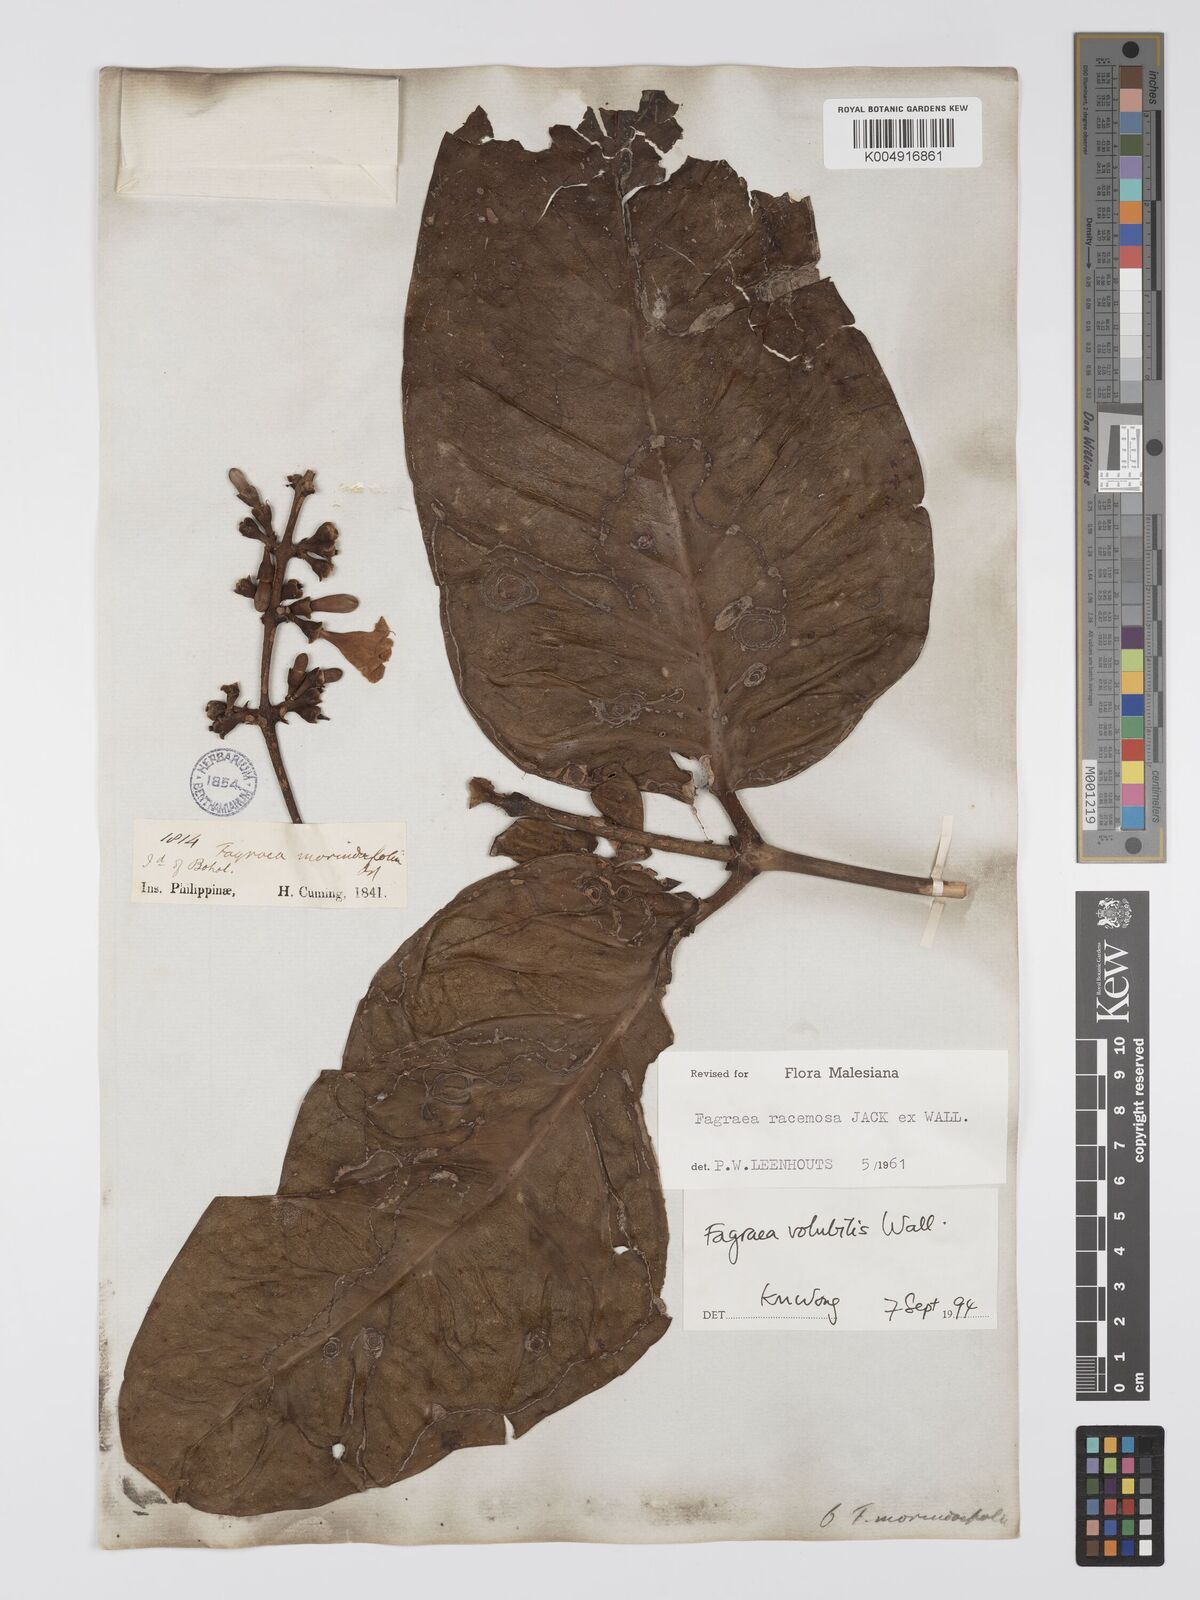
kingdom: Plantae
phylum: Tracheophyta
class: Magnoliopsida
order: Gentianales
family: Gentianaceae
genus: Utania
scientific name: Utania racemosa
